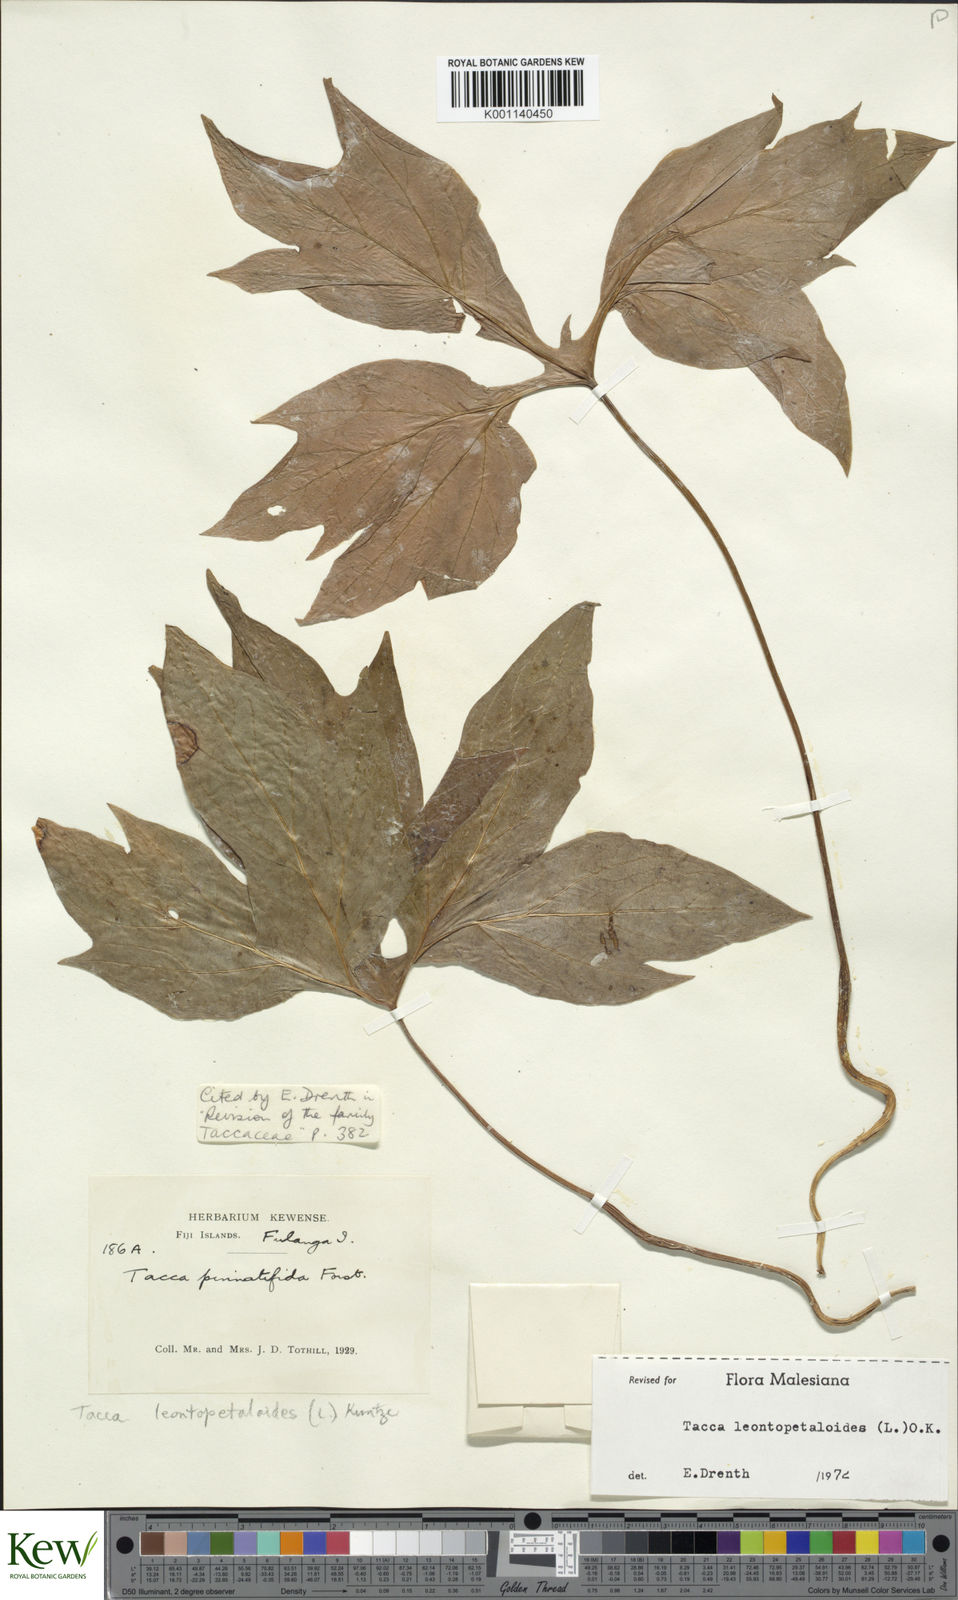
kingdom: Plantae
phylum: Tracheophyta
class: Liliopsida
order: Dioscoreales
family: Dioscoreaceae
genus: Tacca
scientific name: Tacca leontopetaloides
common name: Arrowroot
